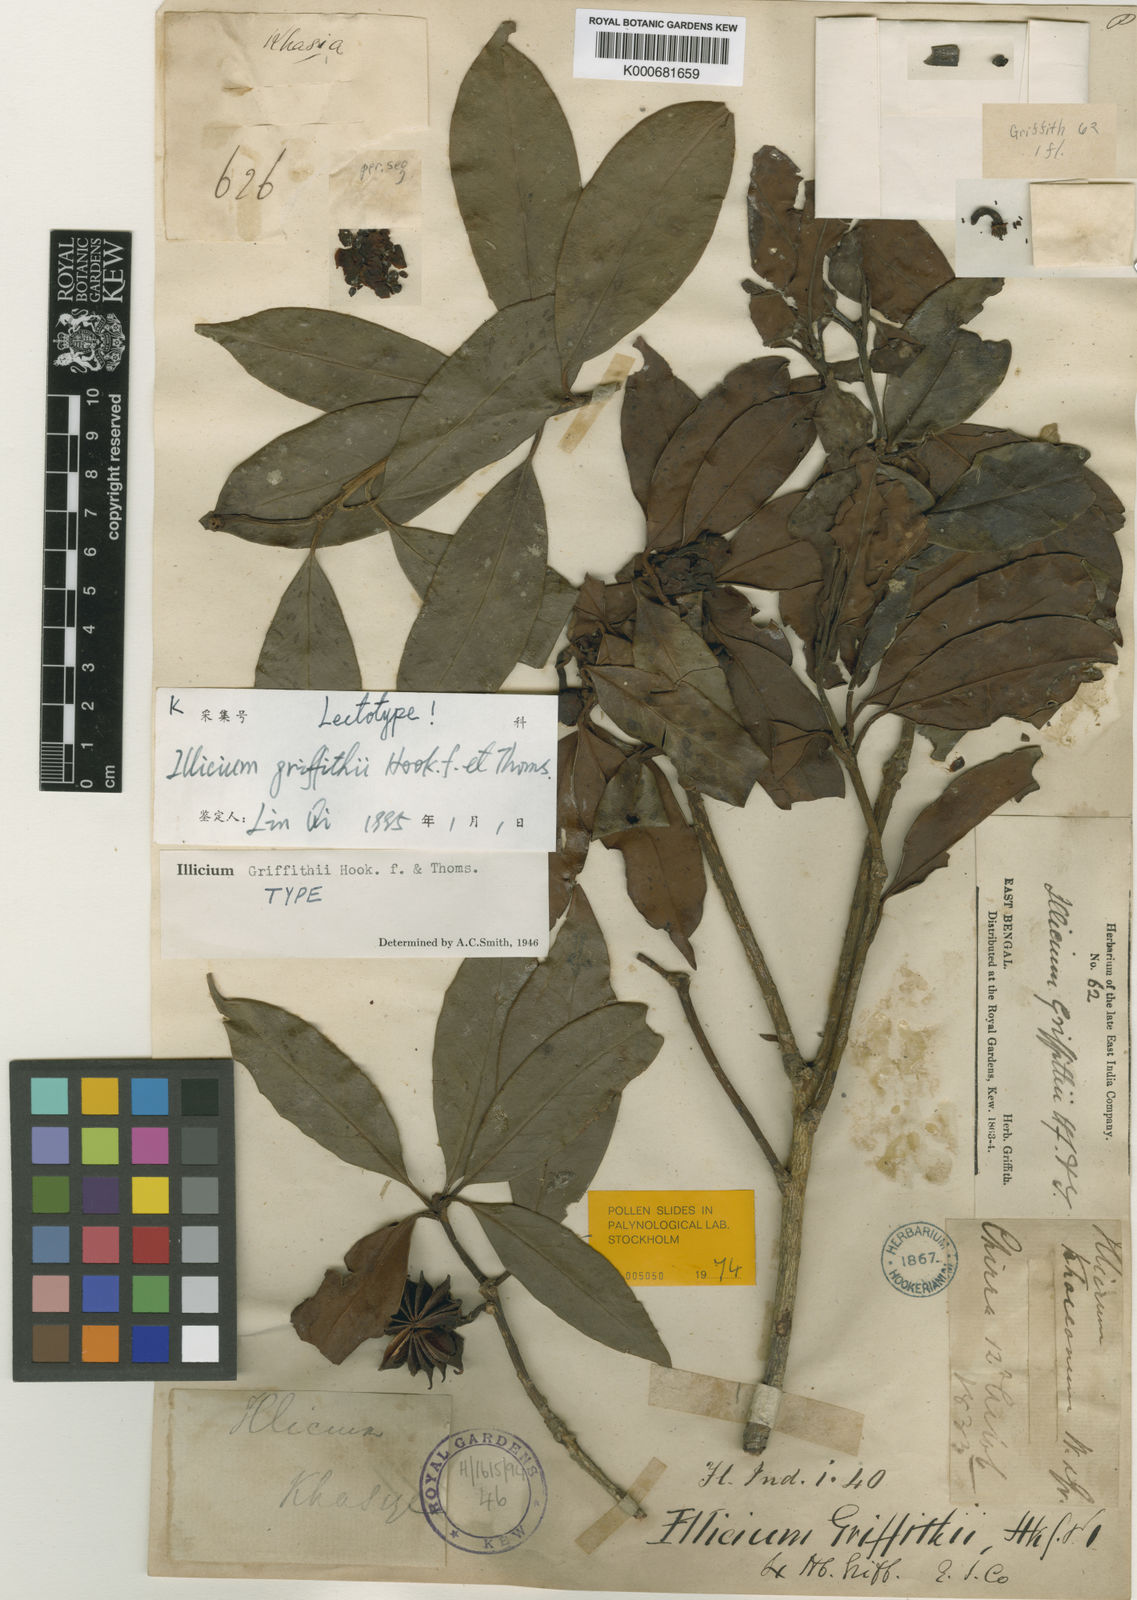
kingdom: Plantae
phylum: Tracheophyta
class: Magnoliopsida
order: Austrobaileyales
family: Schisandraceae
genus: Illicium
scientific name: Illicium griffithii
